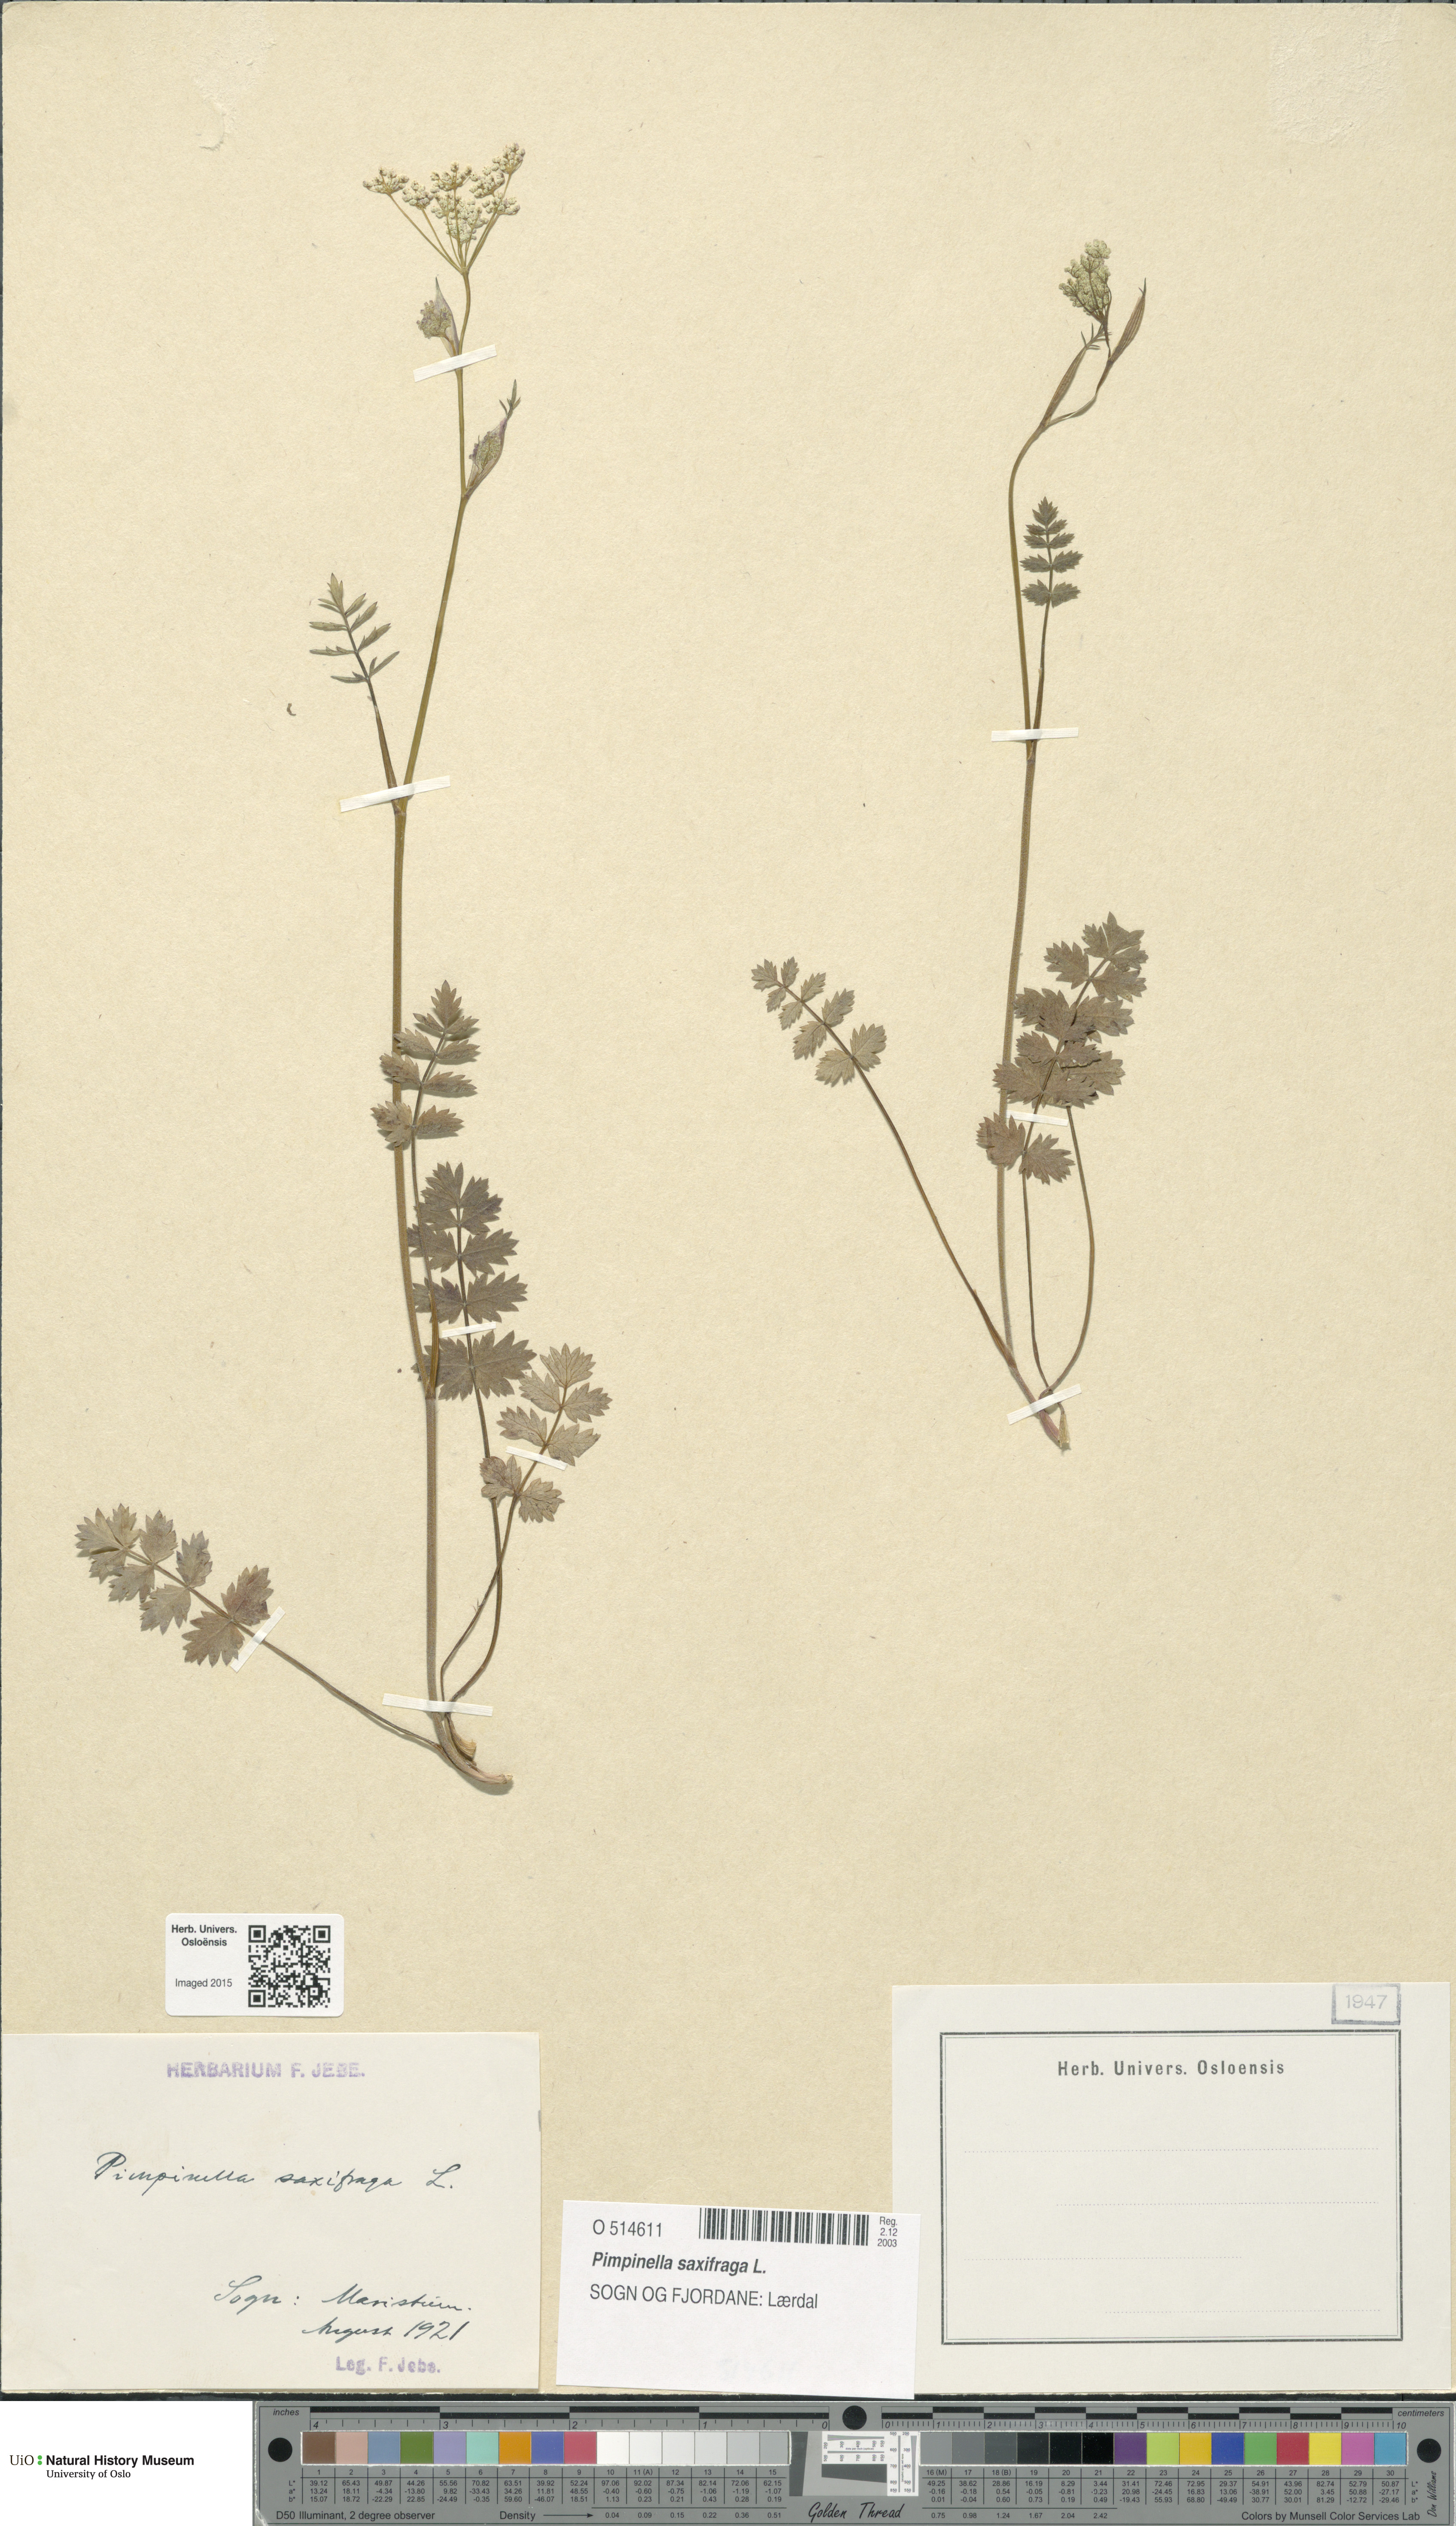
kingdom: Plantae
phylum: Tracheophyta
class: Magnoliopsida
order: Apiales
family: Apiaceae
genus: Pimpinella
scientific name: Pimpinella saxifraga
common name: Burnet-saxifrage
